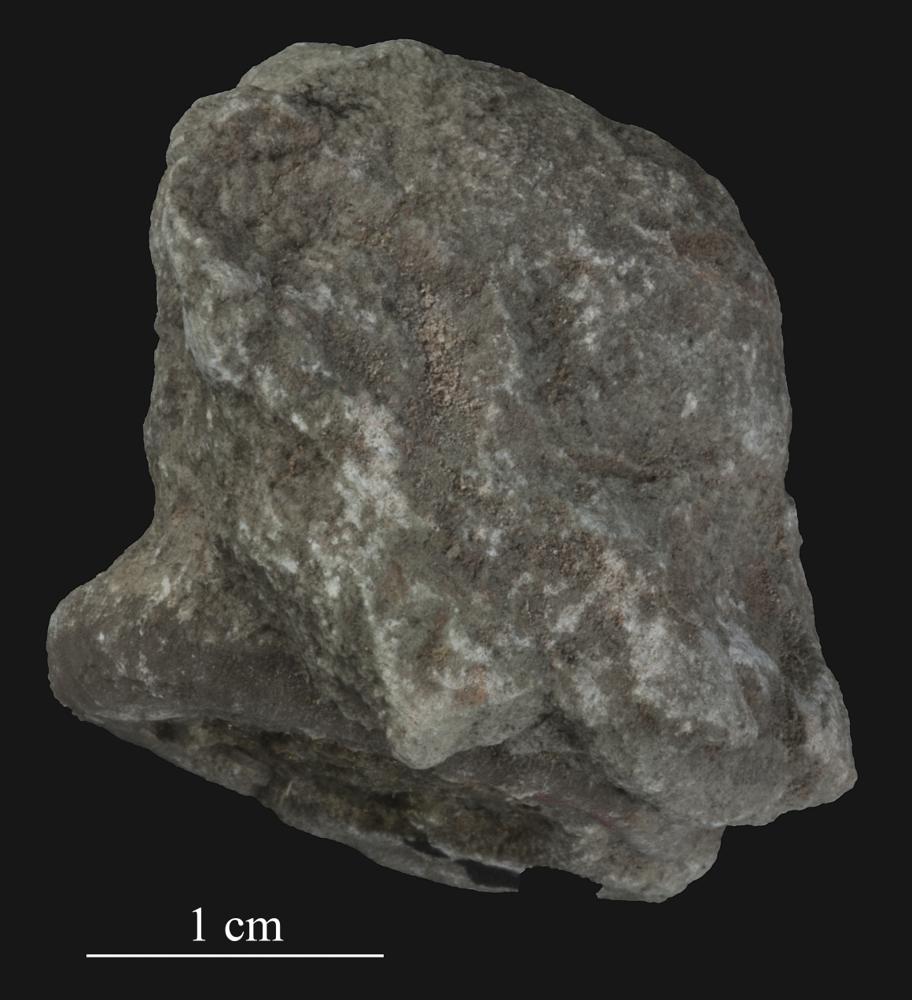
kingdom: Animalia
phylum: Bryozoa
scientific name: Bryozoa
